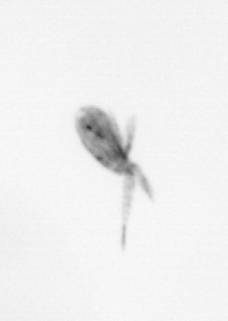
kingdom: Animalia
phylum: Arthropoda
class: Copepoda
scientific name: Copepoda
